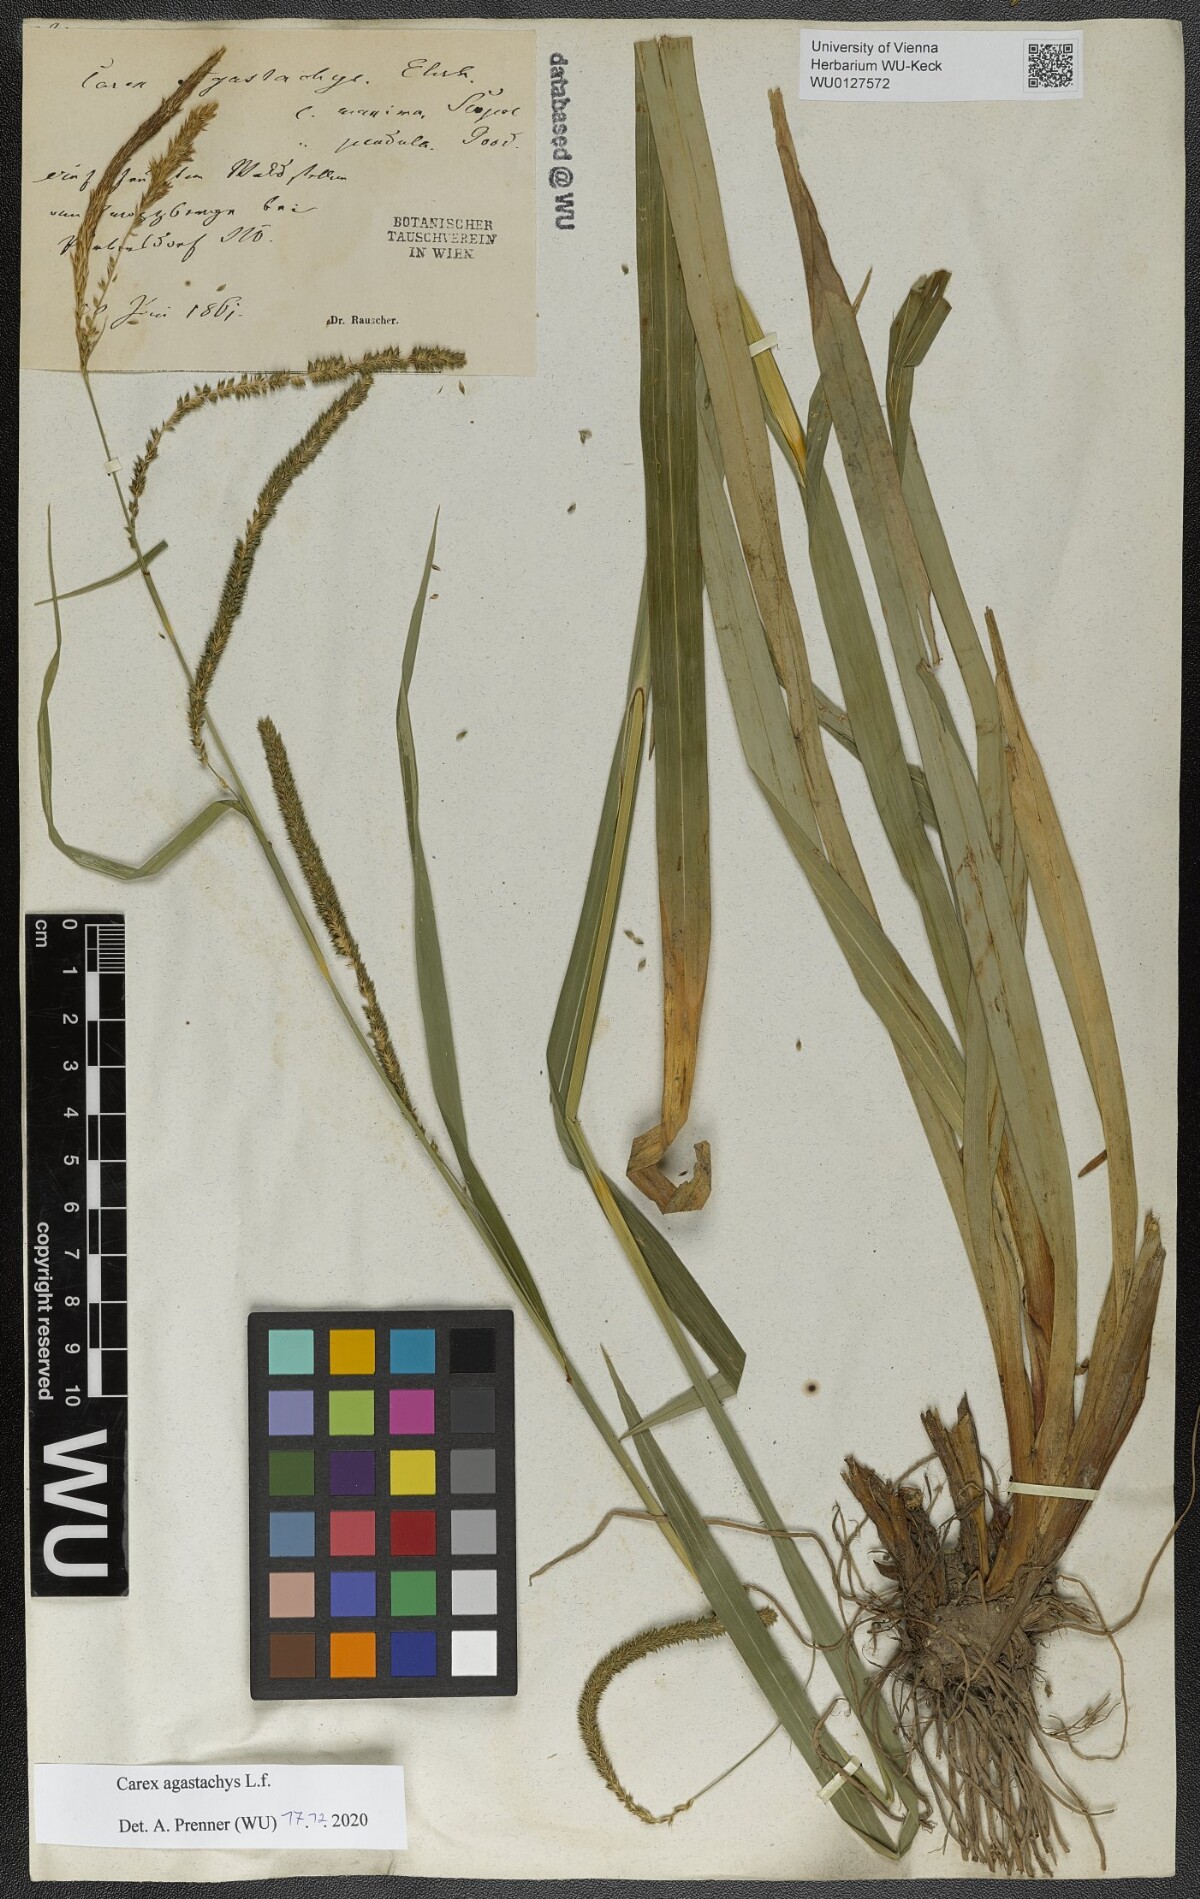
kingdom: Plantae
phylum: Tracheophyta
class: Liliopsida
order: Poales
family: Cyperaceae
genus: Carex
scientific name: Carex agastachys
